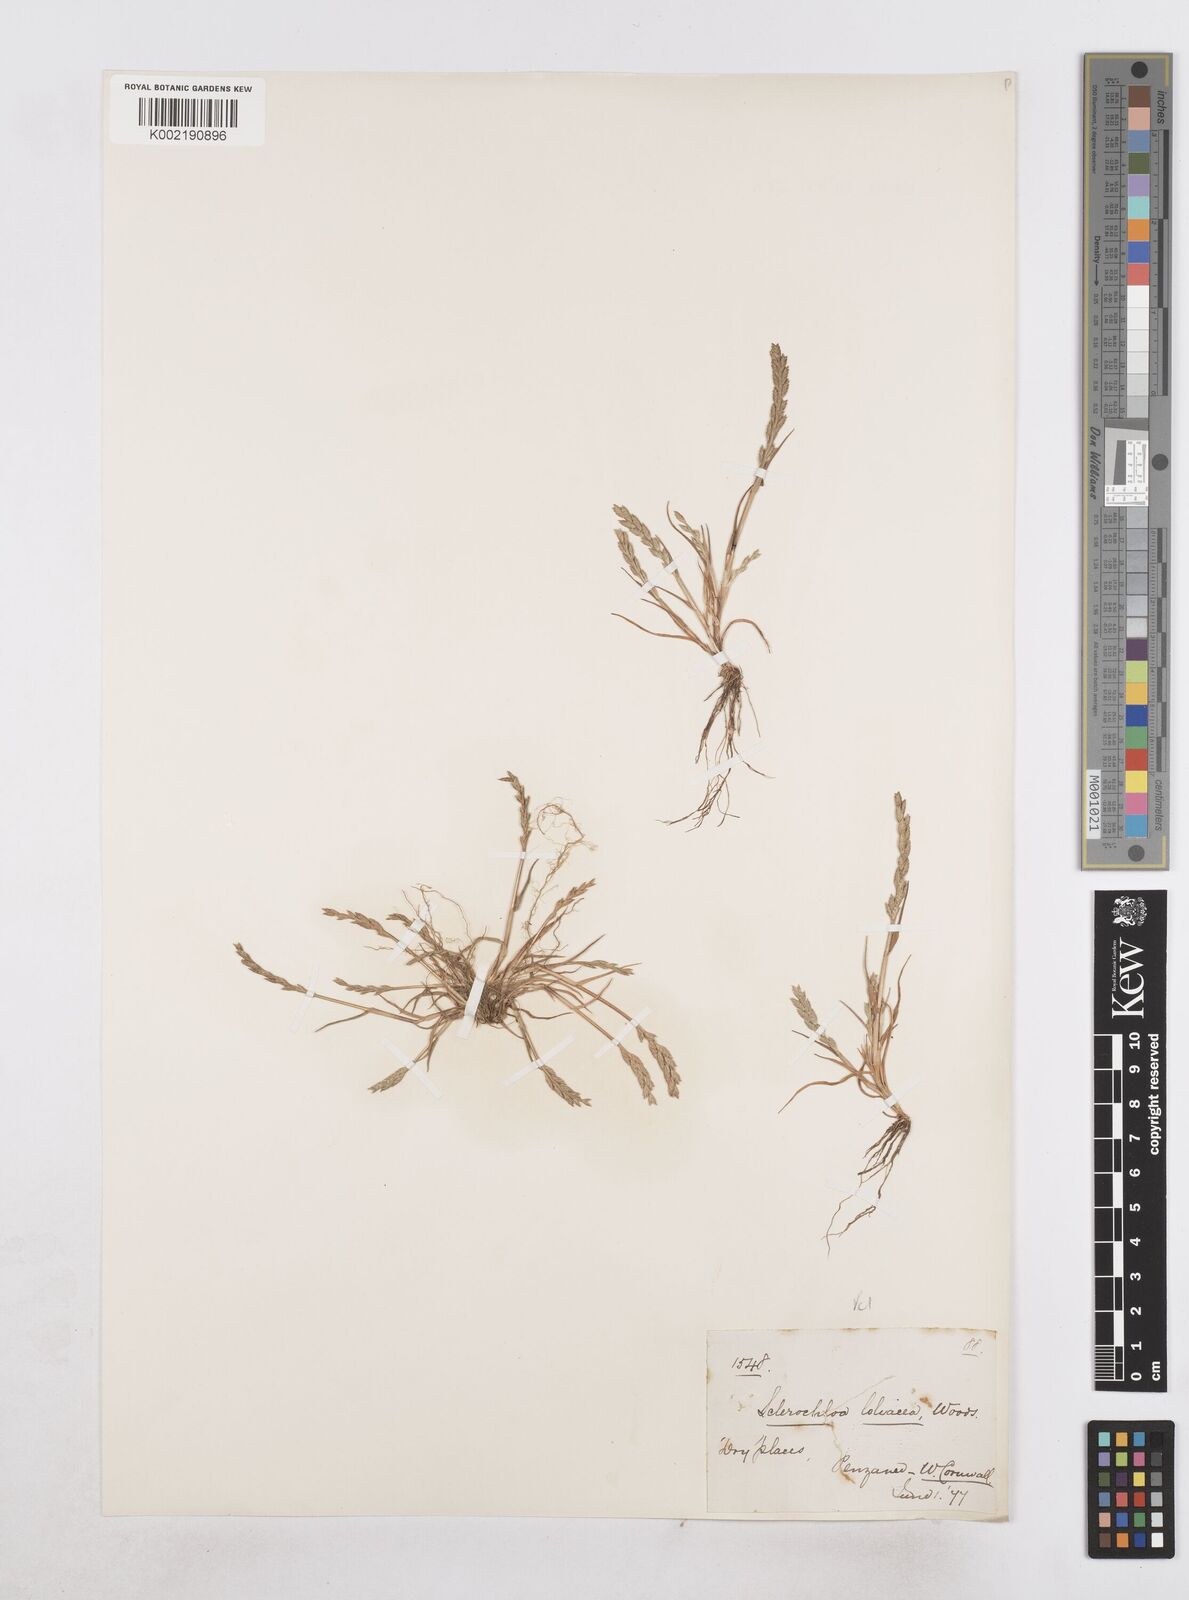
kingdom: Plantae
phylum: Tracheophyta
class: Liliopsida
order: Poales
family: Poaceae
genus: Catapodium
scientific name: Catapodium marinum
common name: Sea fern-grass
